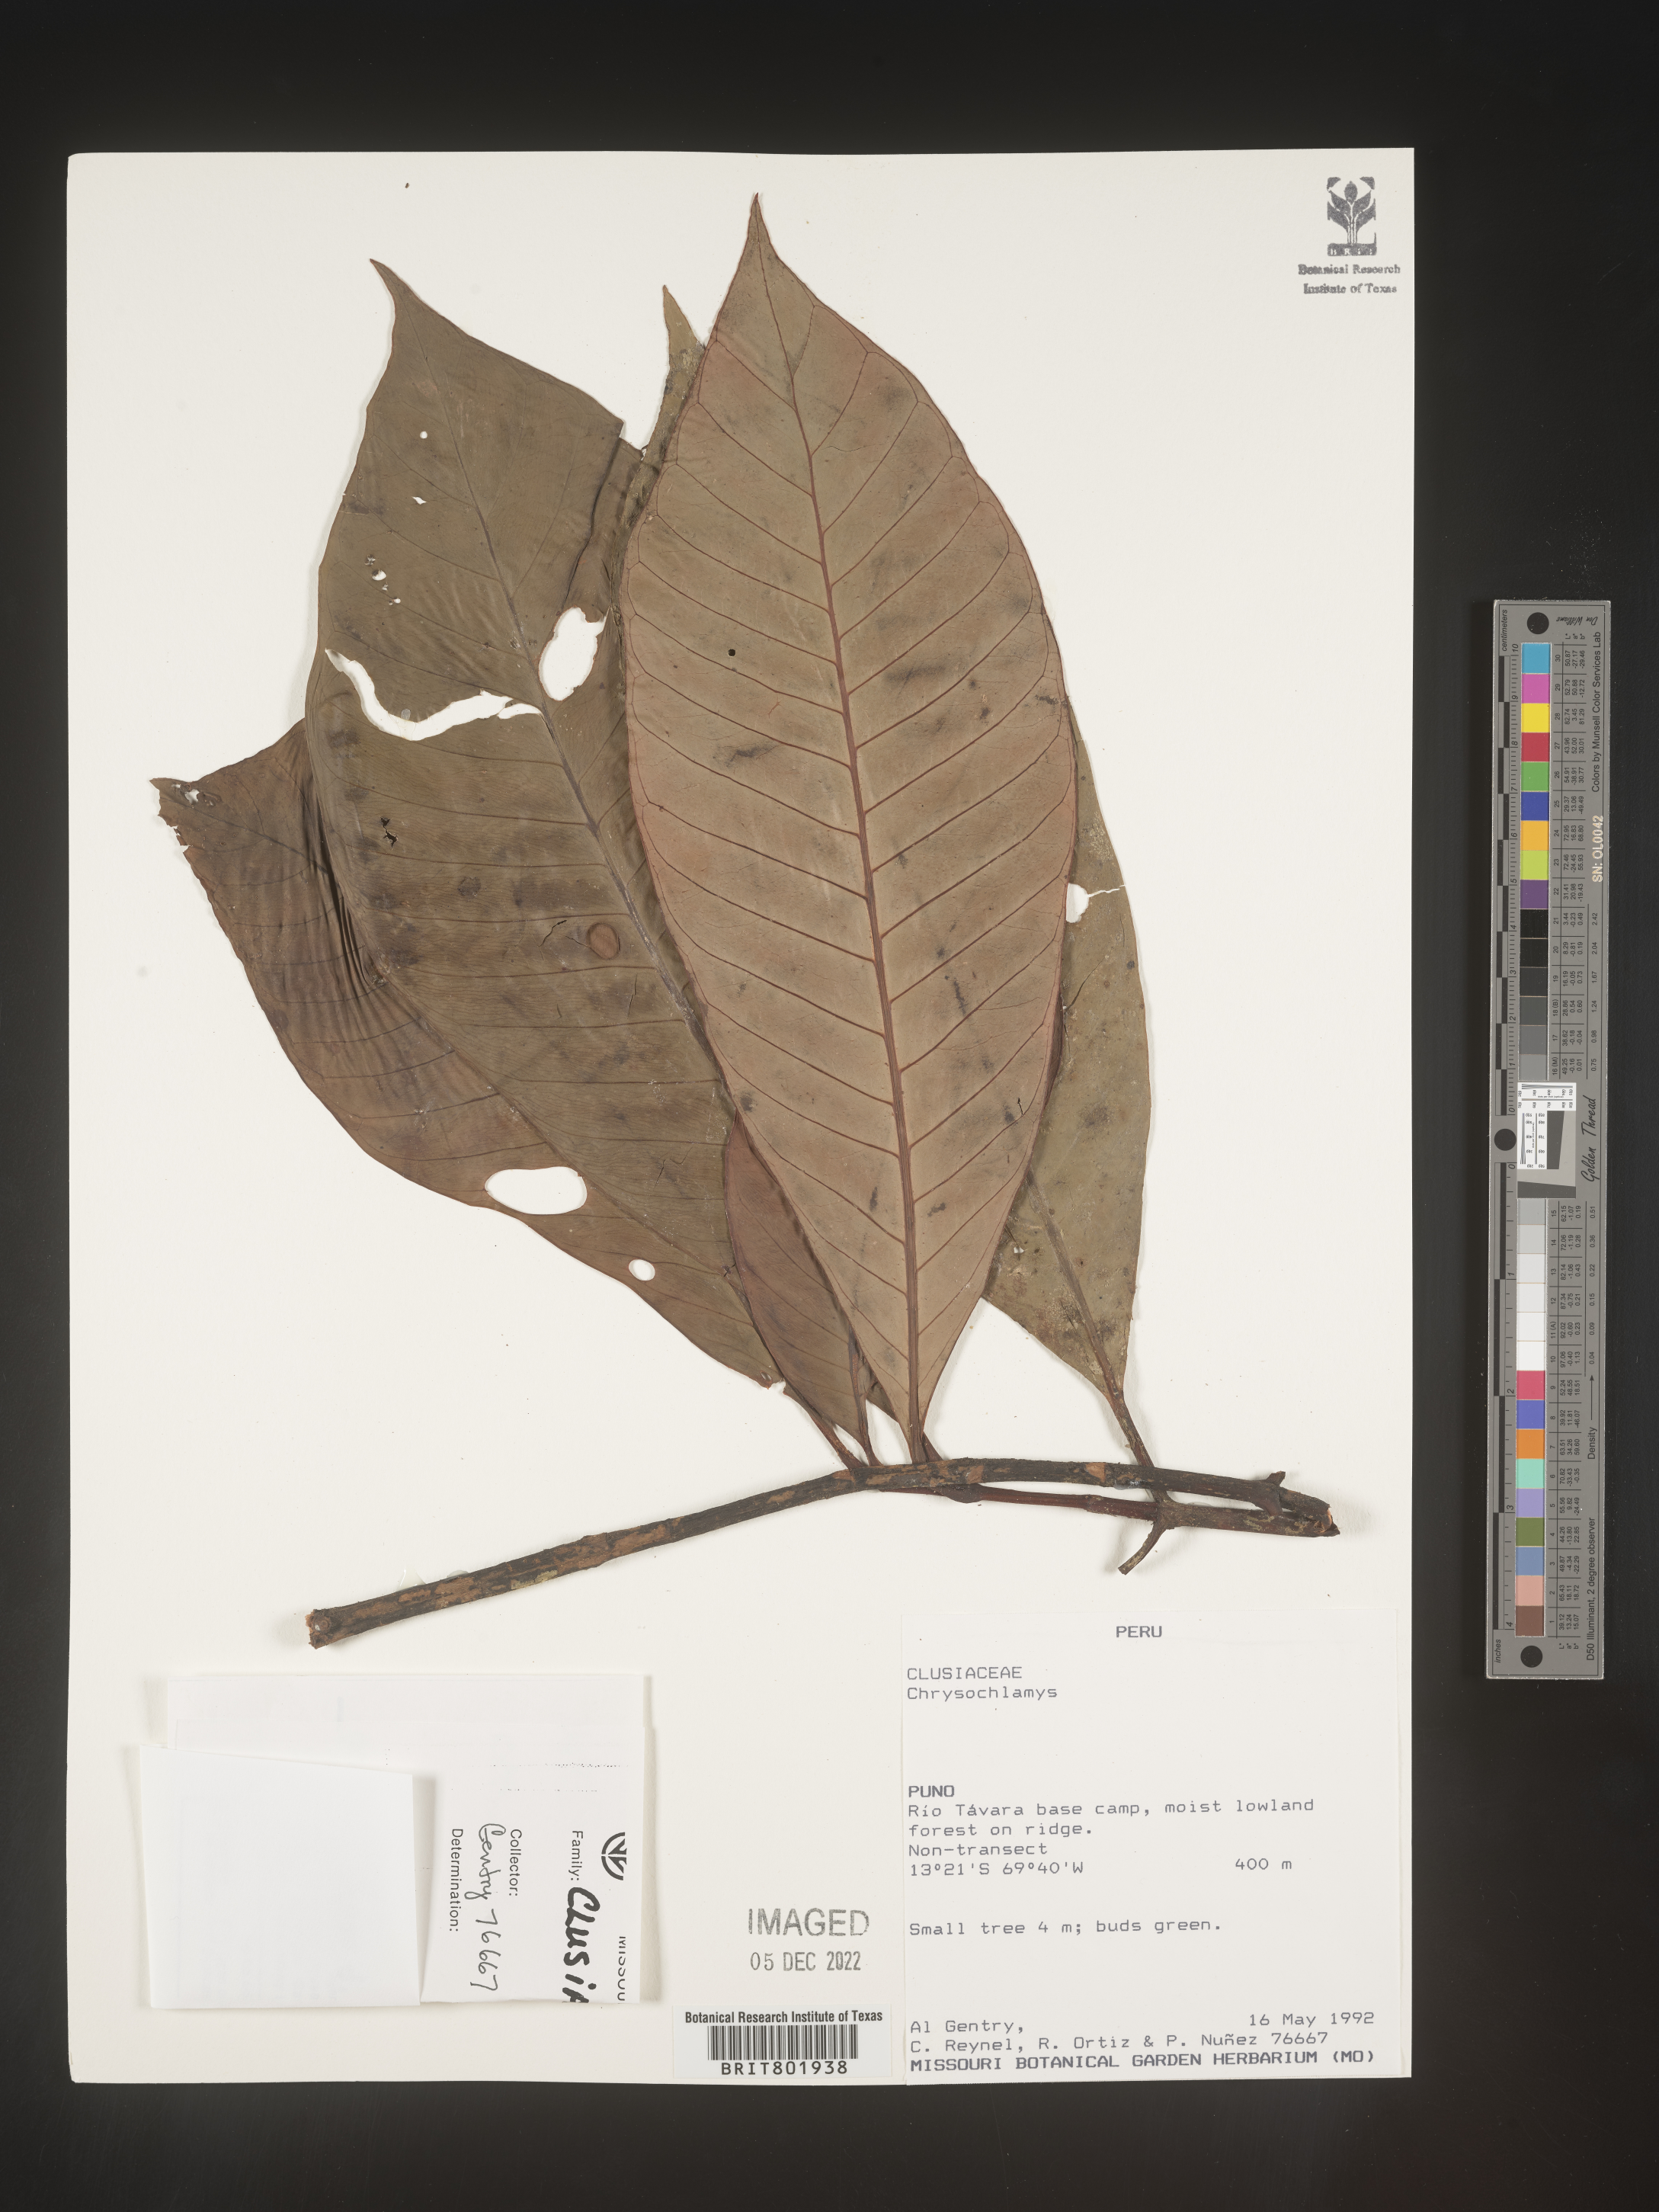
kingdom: Plantae
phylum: Tracheophyta
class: Magnoliopsida
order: Malpighiales
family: Clusiaceae
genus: Chrysochlamys
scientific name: Chrysochlamys
